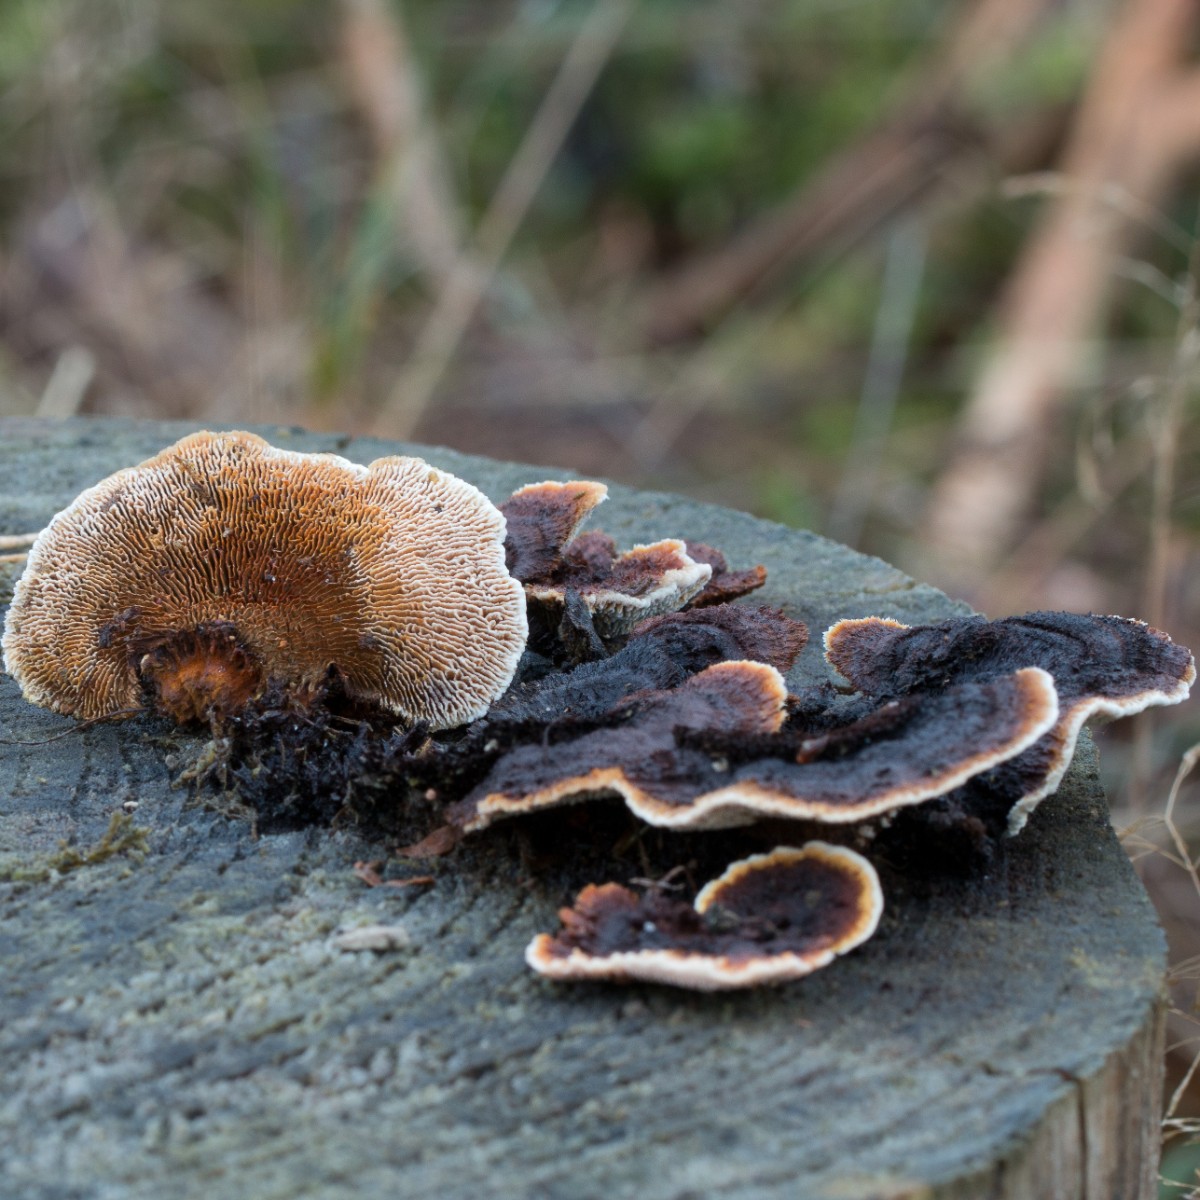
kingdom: Fungi
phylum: Basidiomycota
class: Agaricomycetes
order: Gloeophyllales
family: Gloeophyllaceae
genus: Gloeophyllum
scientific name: Gloeophyllum sepiarium
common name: fyrre-korkhat
